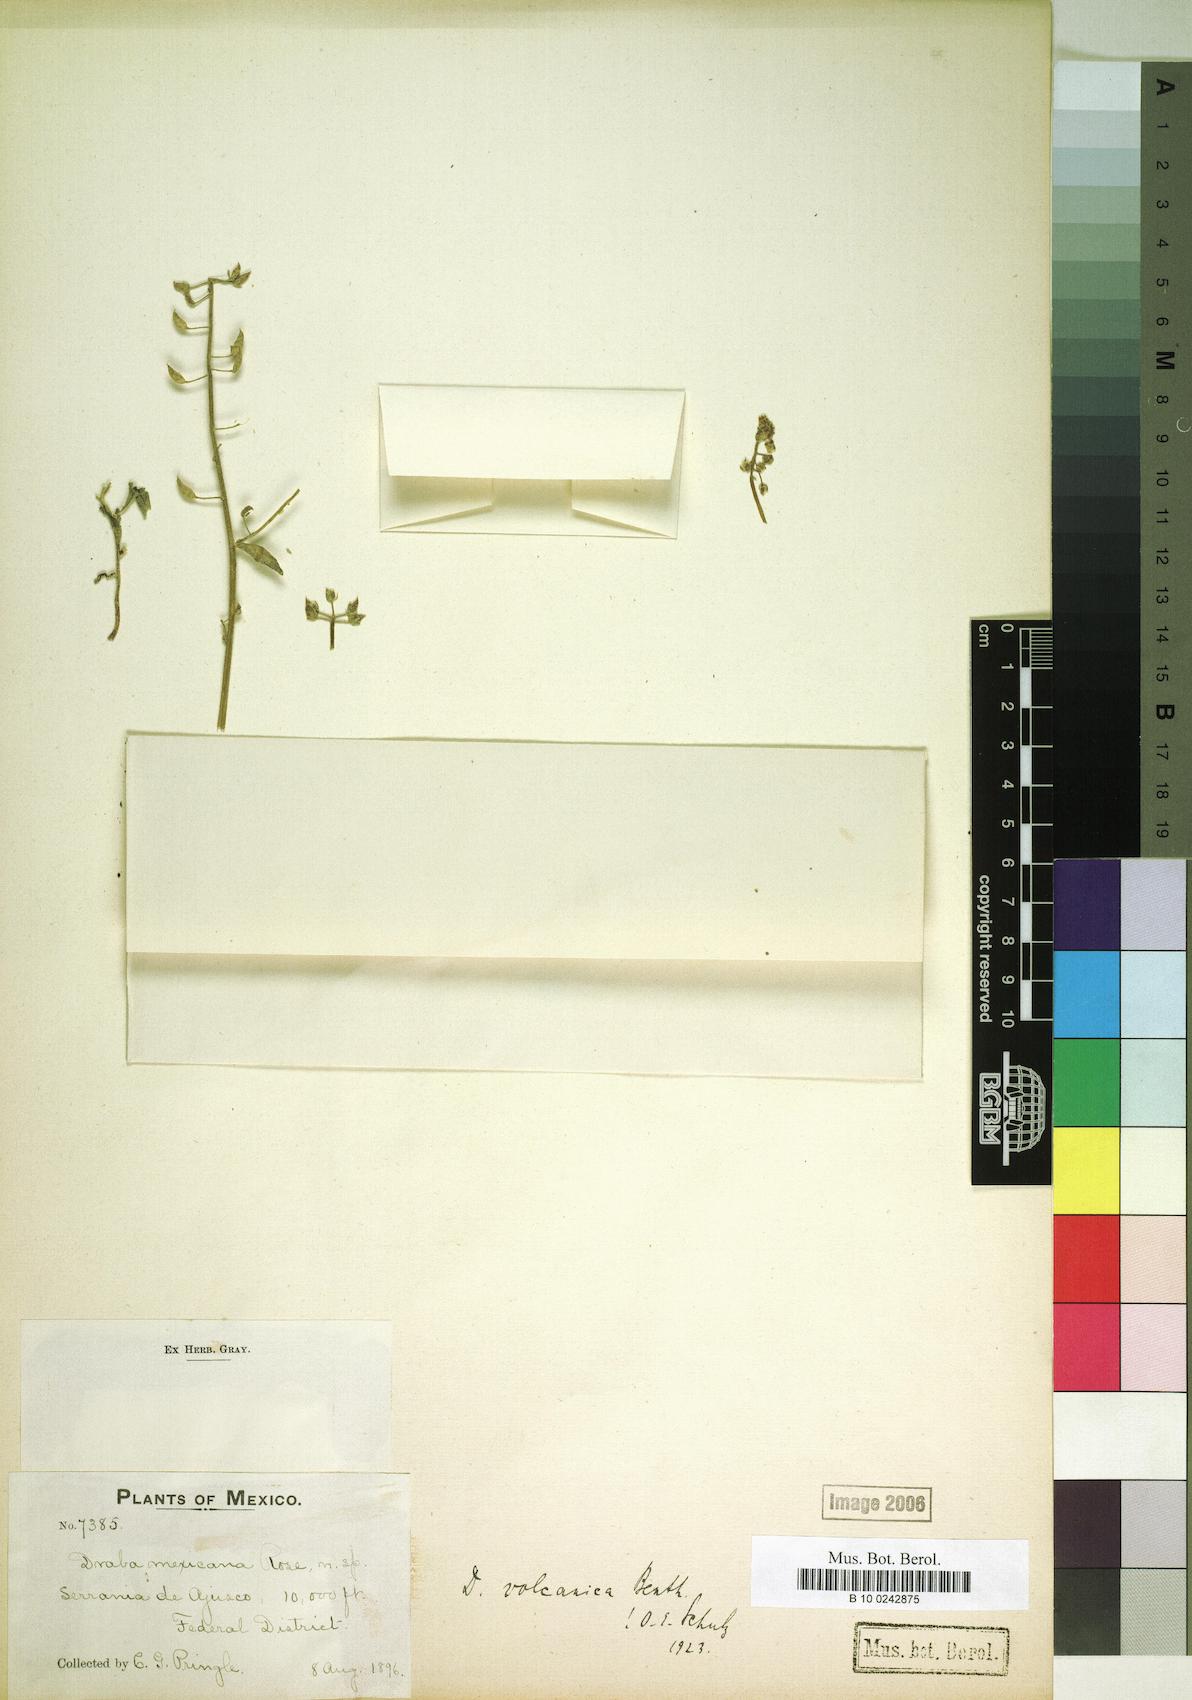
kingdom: Plantae
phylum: Tracheophyta
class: Magnoliopsida
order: Brassicales
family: Brassicaceae
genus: Draba
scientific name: Draba jorullensis
